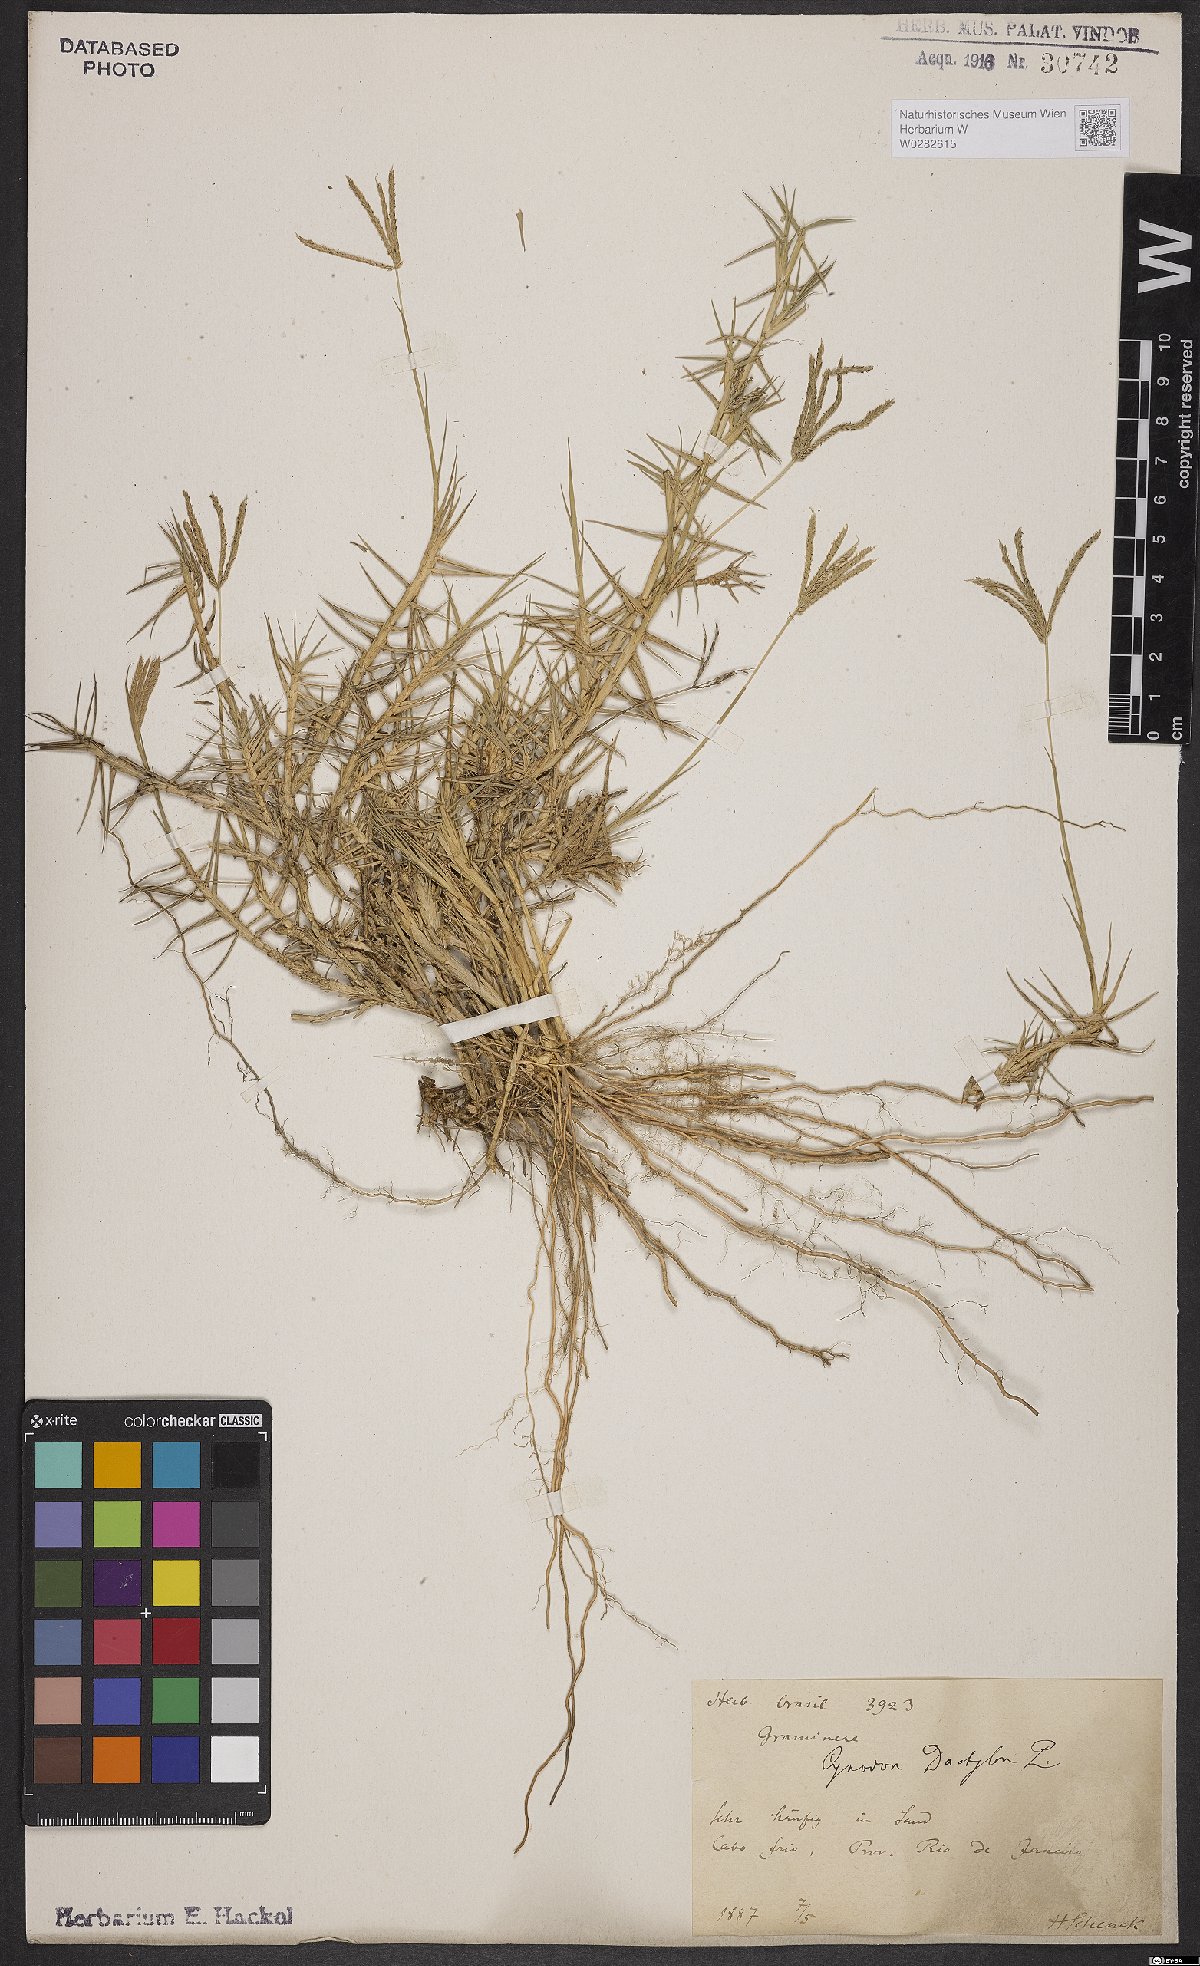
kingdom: Plantae
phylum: Tracheophyta
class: Liliopsida
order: Poales
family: Poaceae
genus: Cynodon
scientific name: Cynodon dactylon
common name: Bermuda grass
